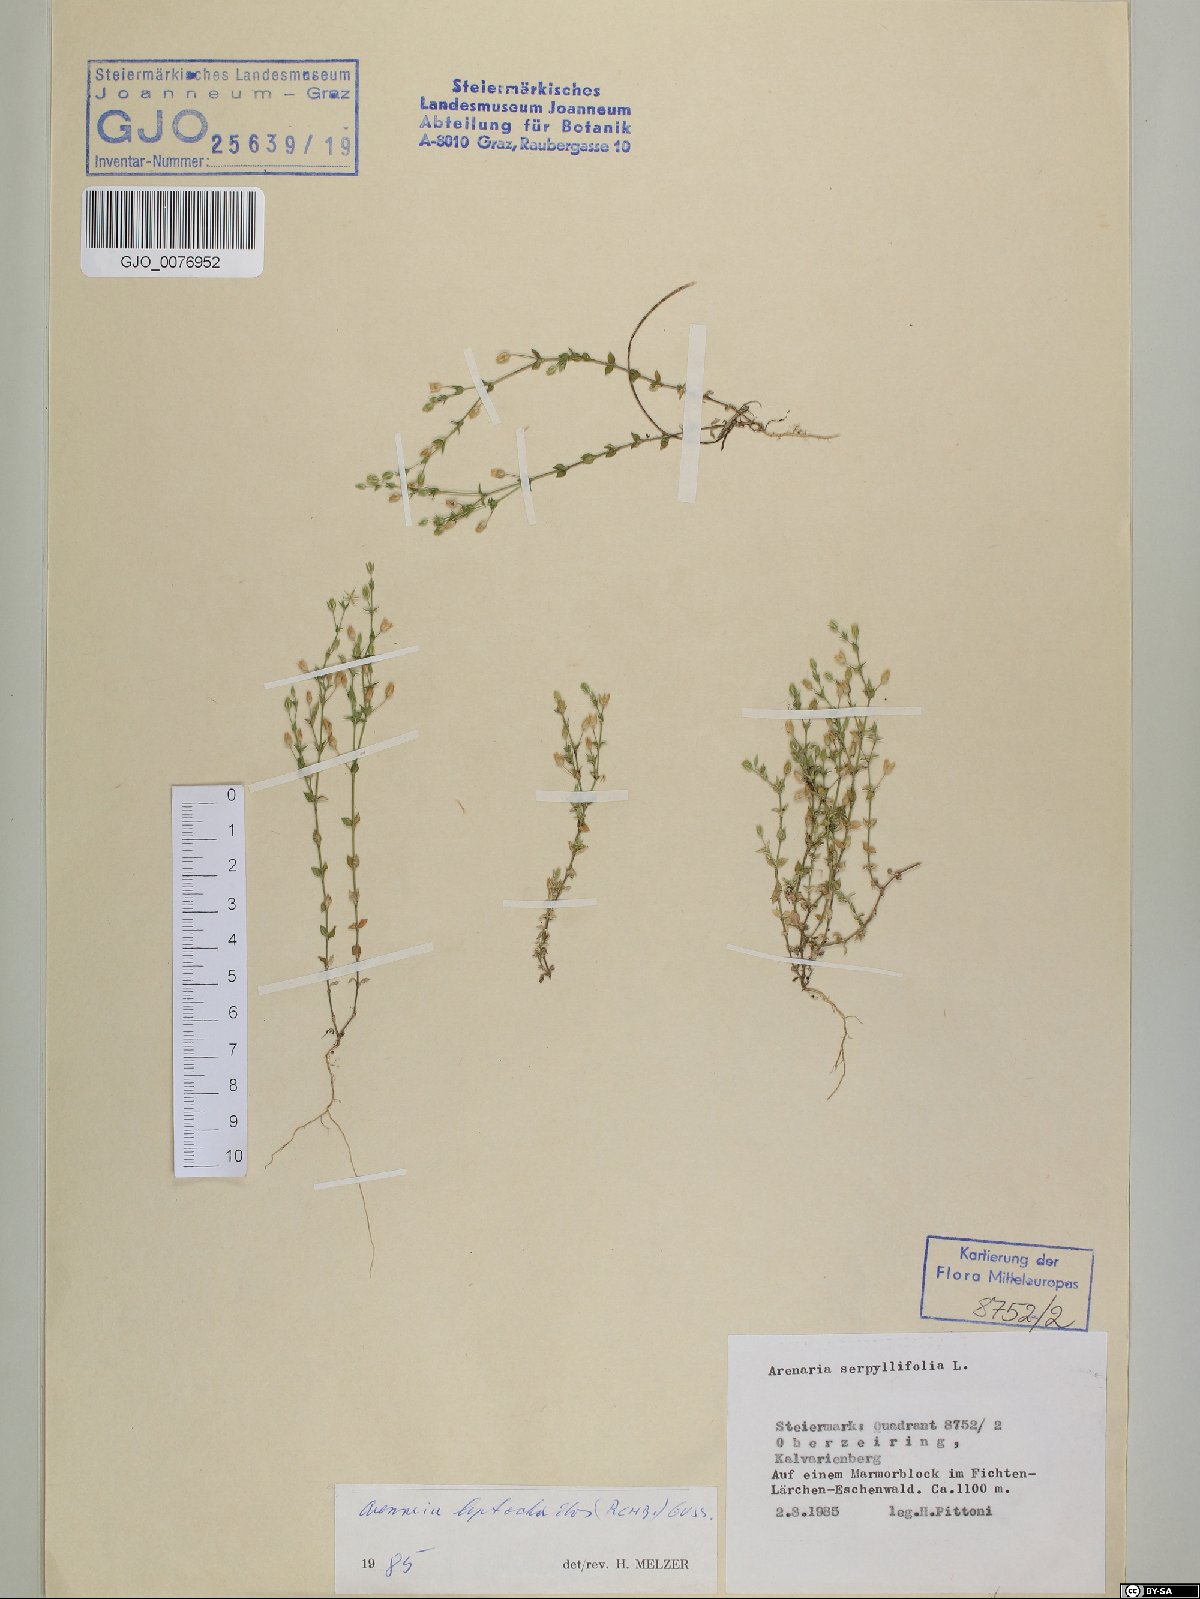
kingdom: Plantae
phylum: Tracheophyta
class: Magnoliopsida
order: Caryophyllales
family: Caryophyllaceae
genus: Arenaria
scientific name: Arenaria leptoclados
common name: Thyme-leaved sandwort
